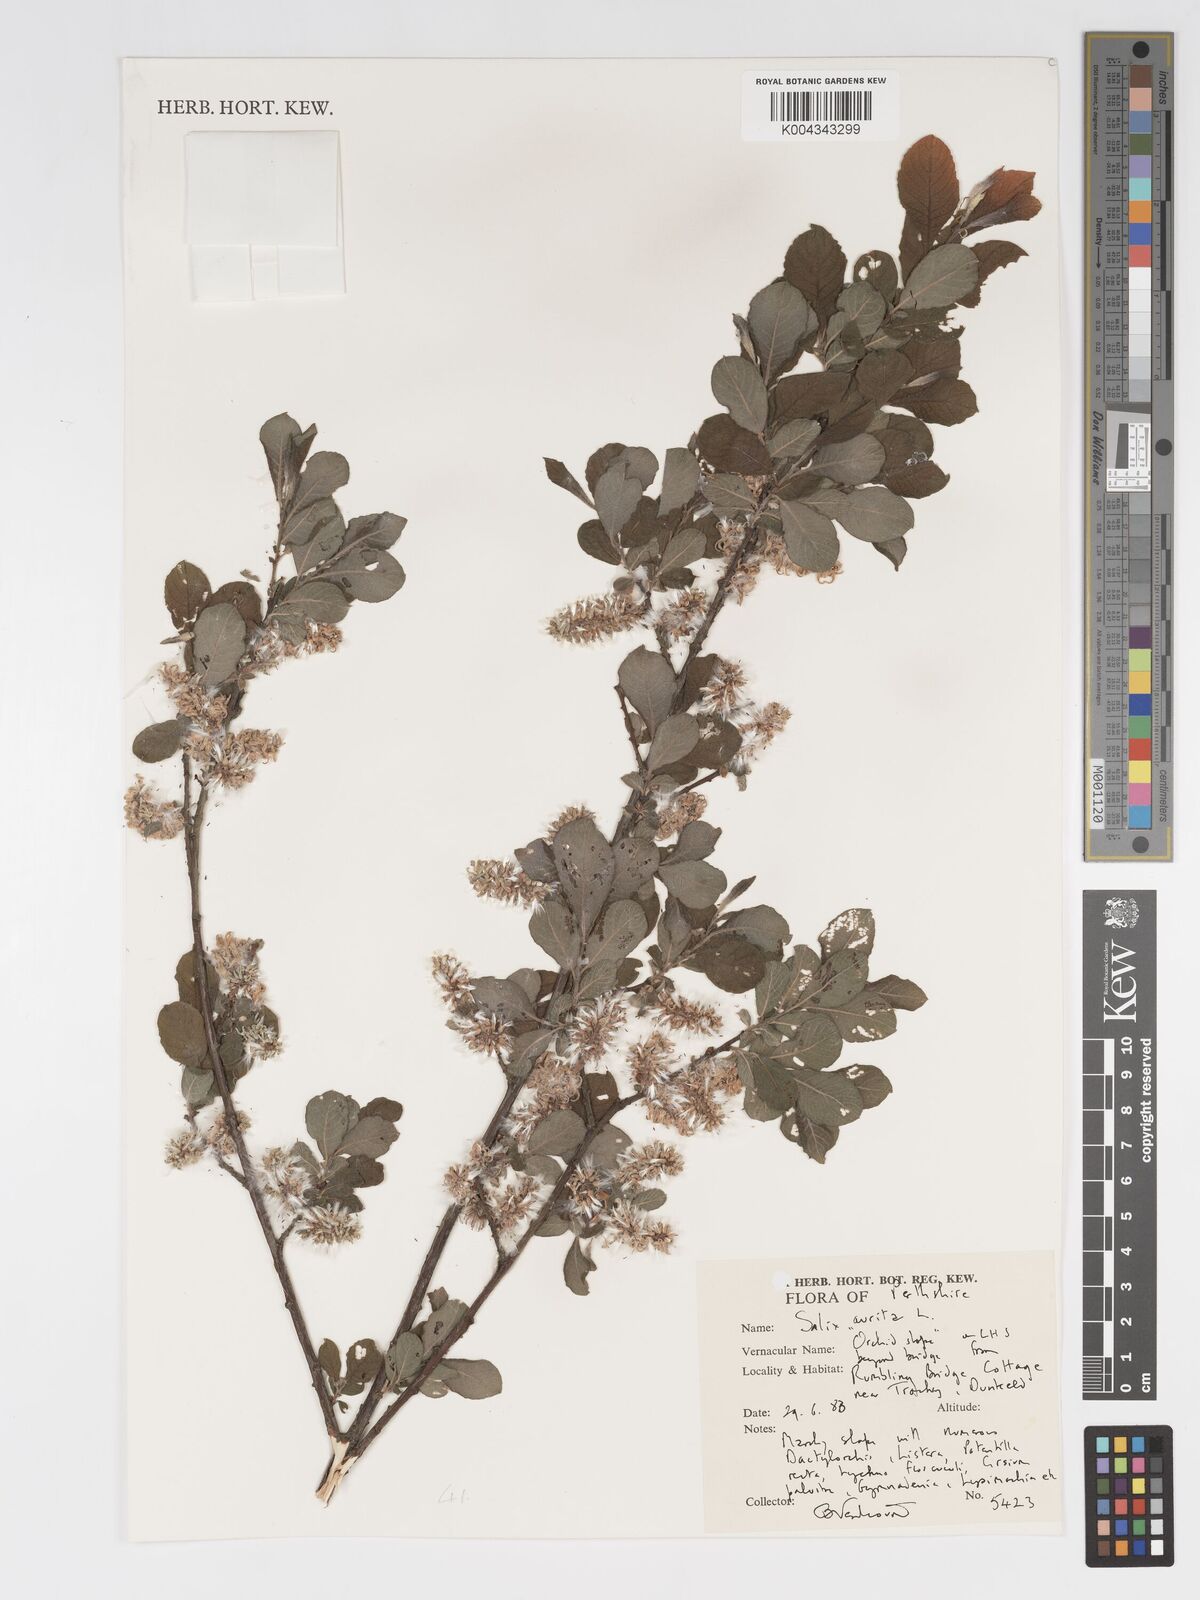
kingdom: Plantae
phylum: Tracheophyta
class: Magnoliopsida
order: Malpighiales
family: Salicaceae
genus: Salix
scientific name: Salix aurita
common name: Eared willow
